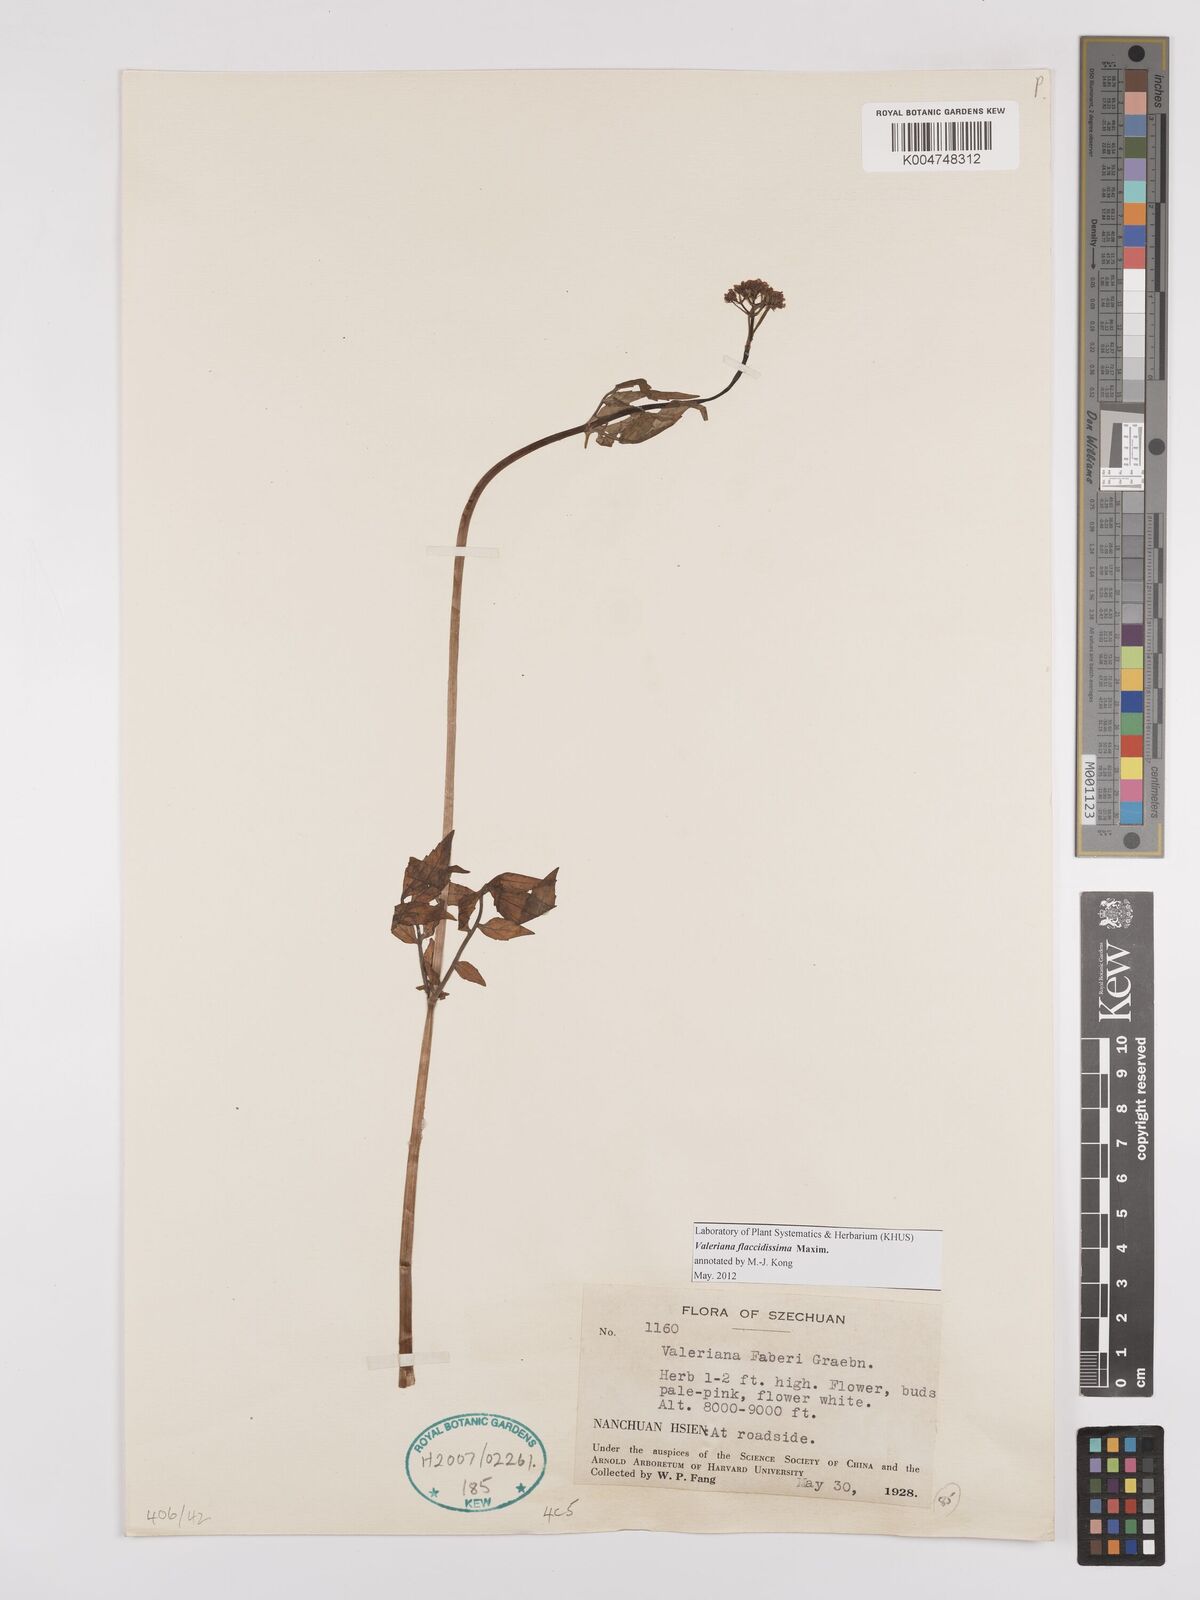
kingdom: Plantae
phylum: Tracheophyta
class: Magnoliopsida
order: Dipsacales
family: Caprifoliaceae
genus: Valeriana
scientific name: Valeriana flaccidissima
